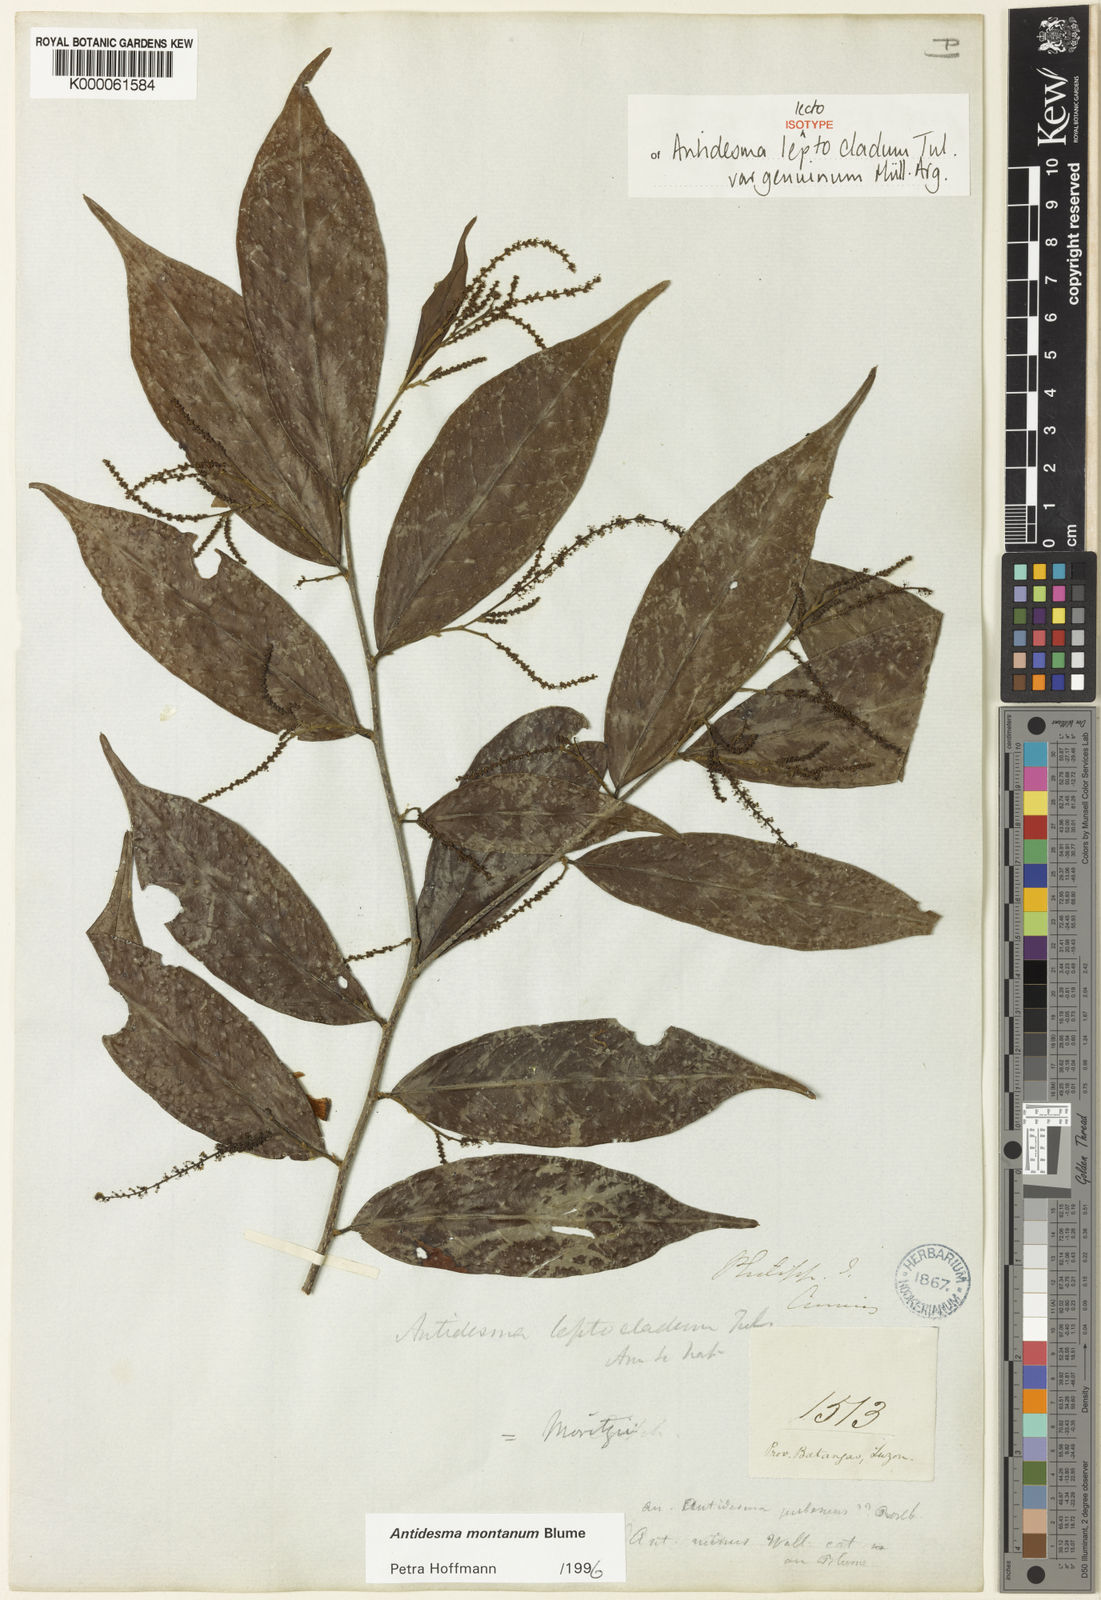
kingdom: Plantae
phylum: Tracheophyta
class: Magnoliopsida
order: Malpighiales
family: Phyllanthaceae
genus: Antidesma
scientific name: Antidesma montanum
